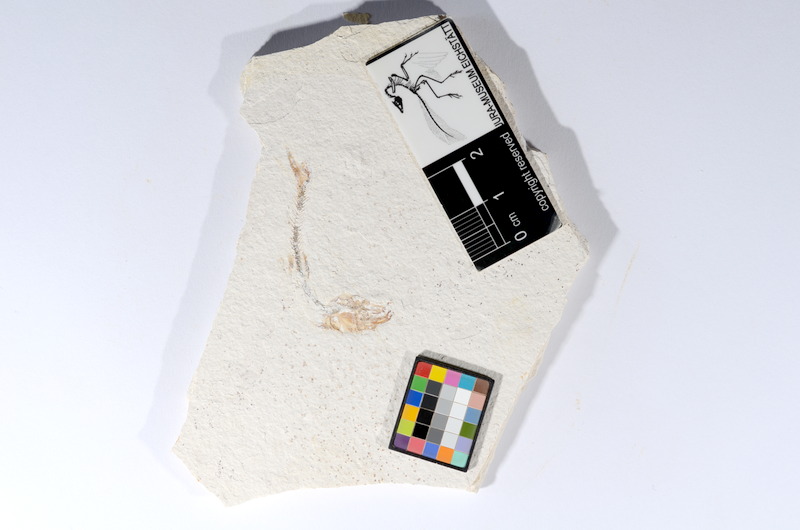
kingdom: Animalia
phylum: Chordata
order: Salmoniformes
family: Orthogonikleithridae
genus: Orthogonikleithrus
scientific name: Orthogonikleithrus hoelli
